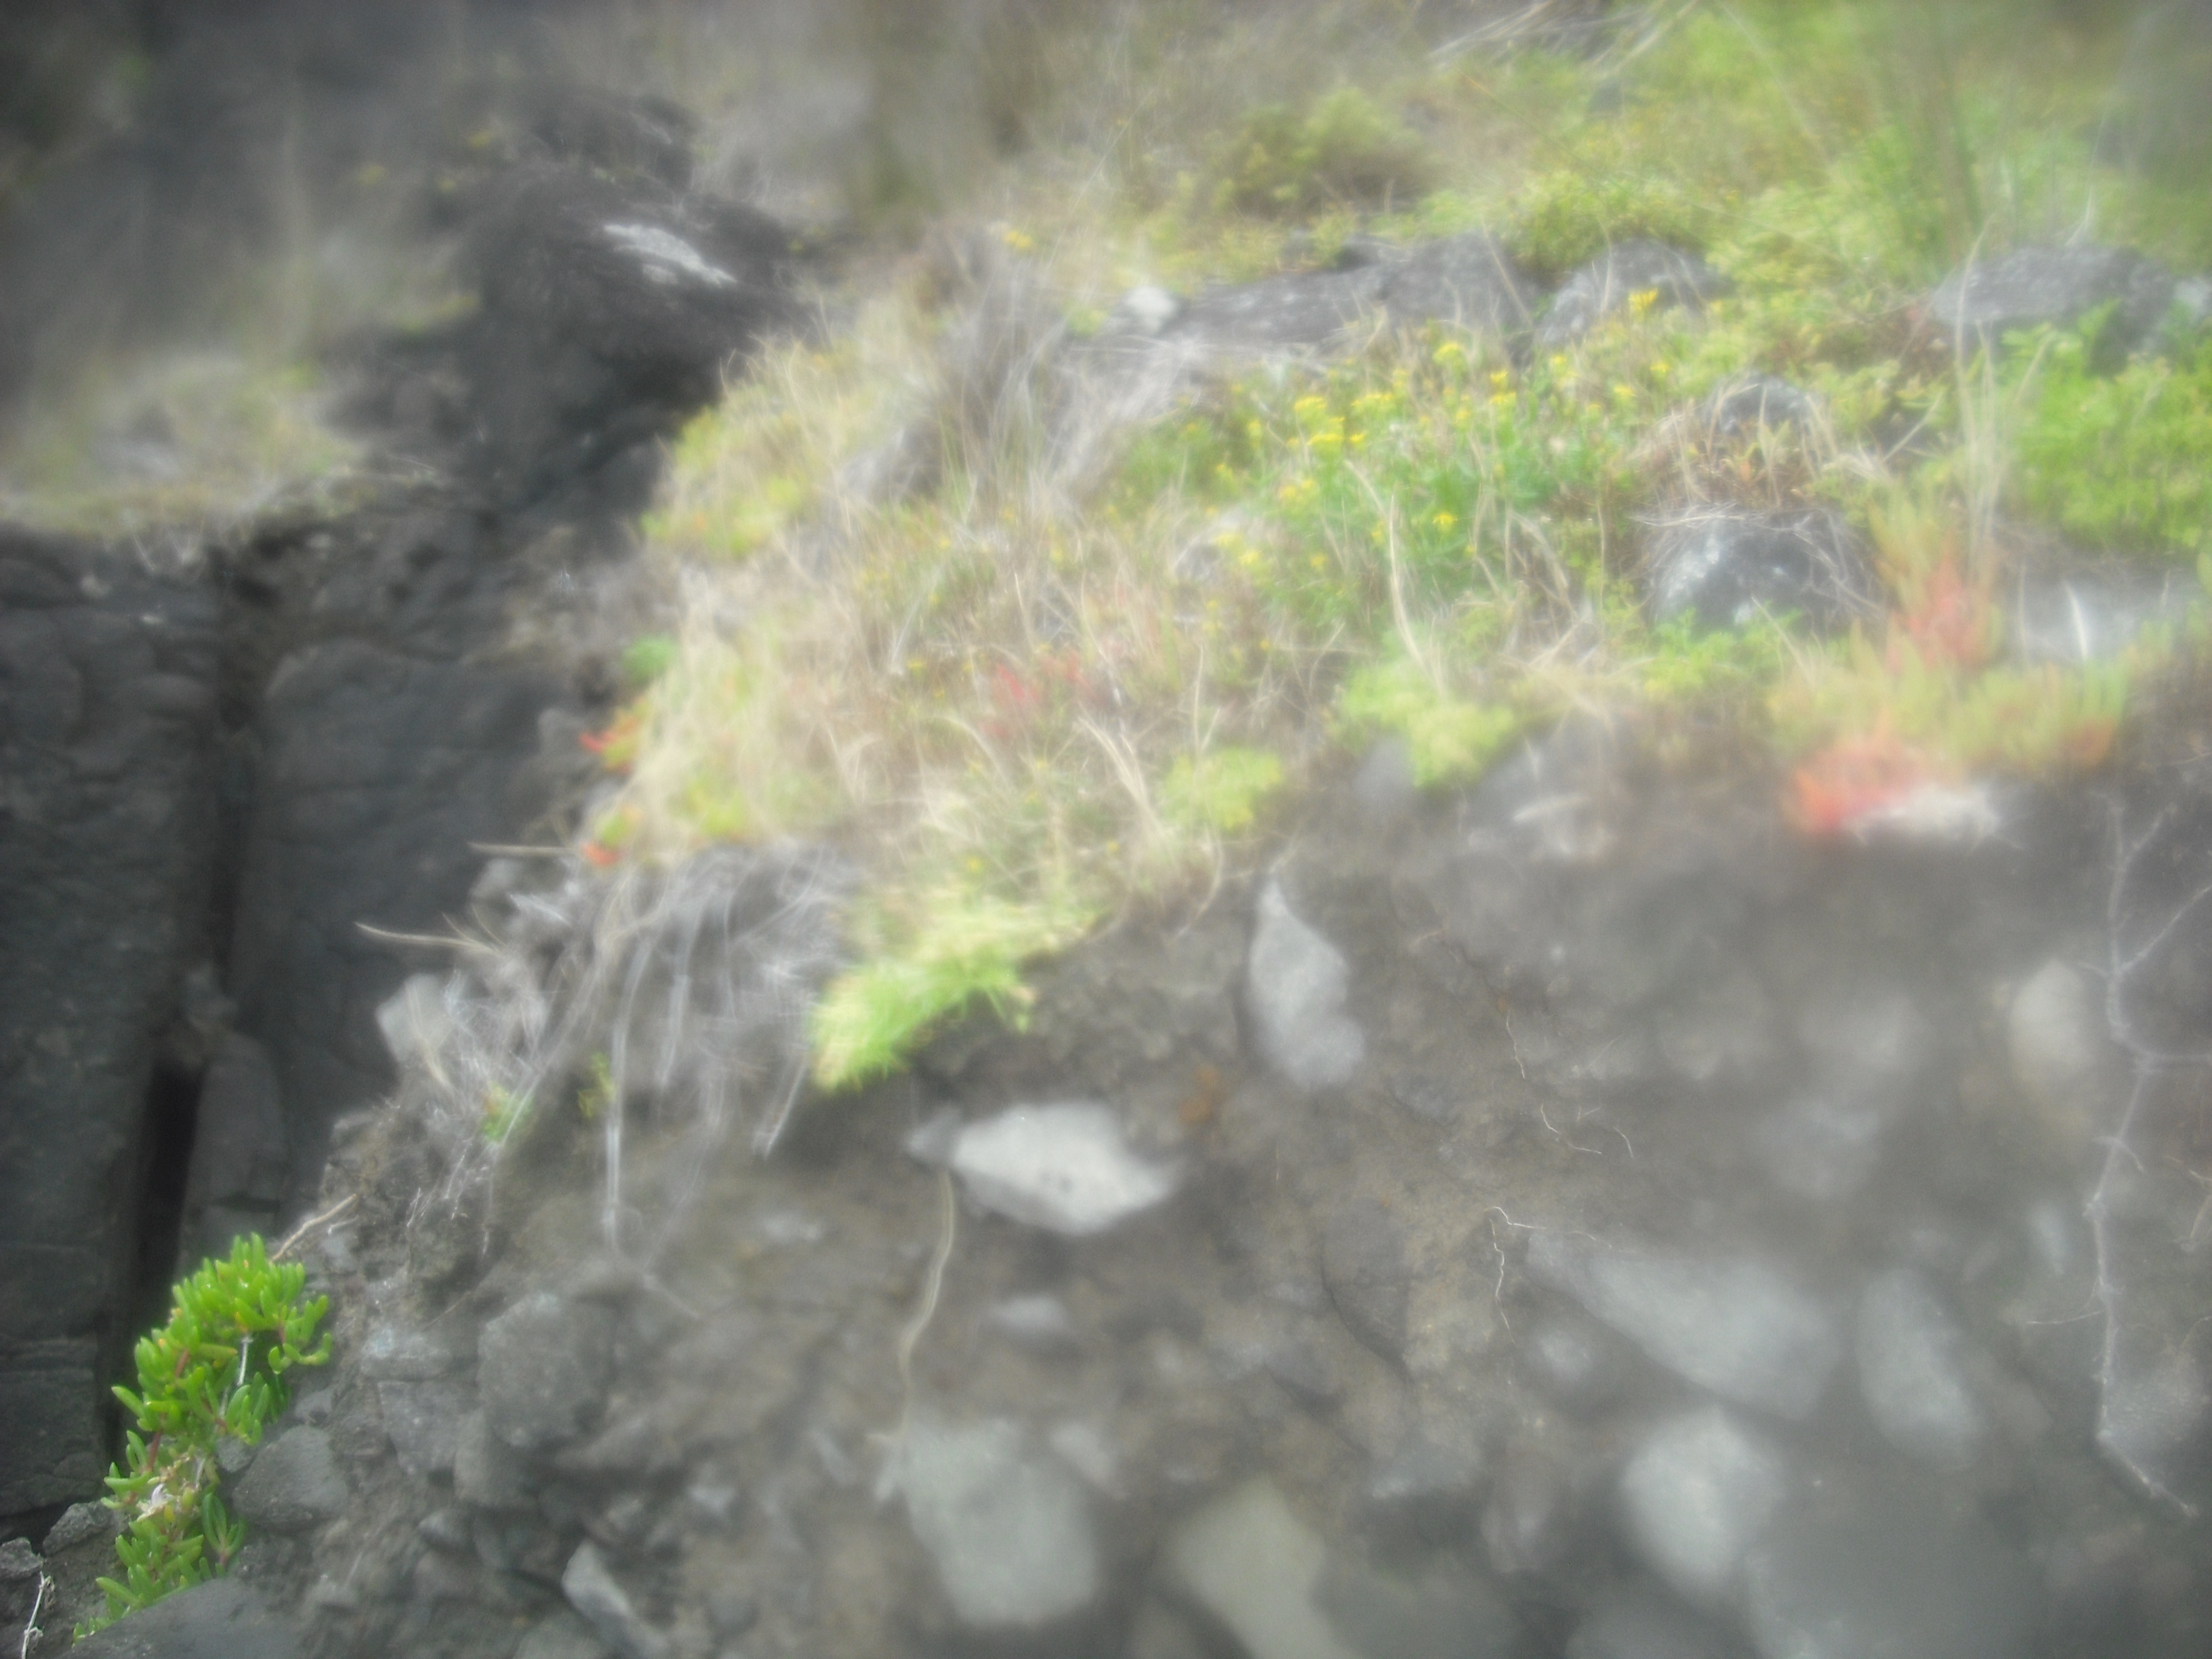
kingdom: Plantae
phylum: Tracheophyta
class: Magnoliopsida
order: Caryophyllales
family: Caryophyllaceae
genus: Spergularia
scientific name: Spergularia tasmanica
